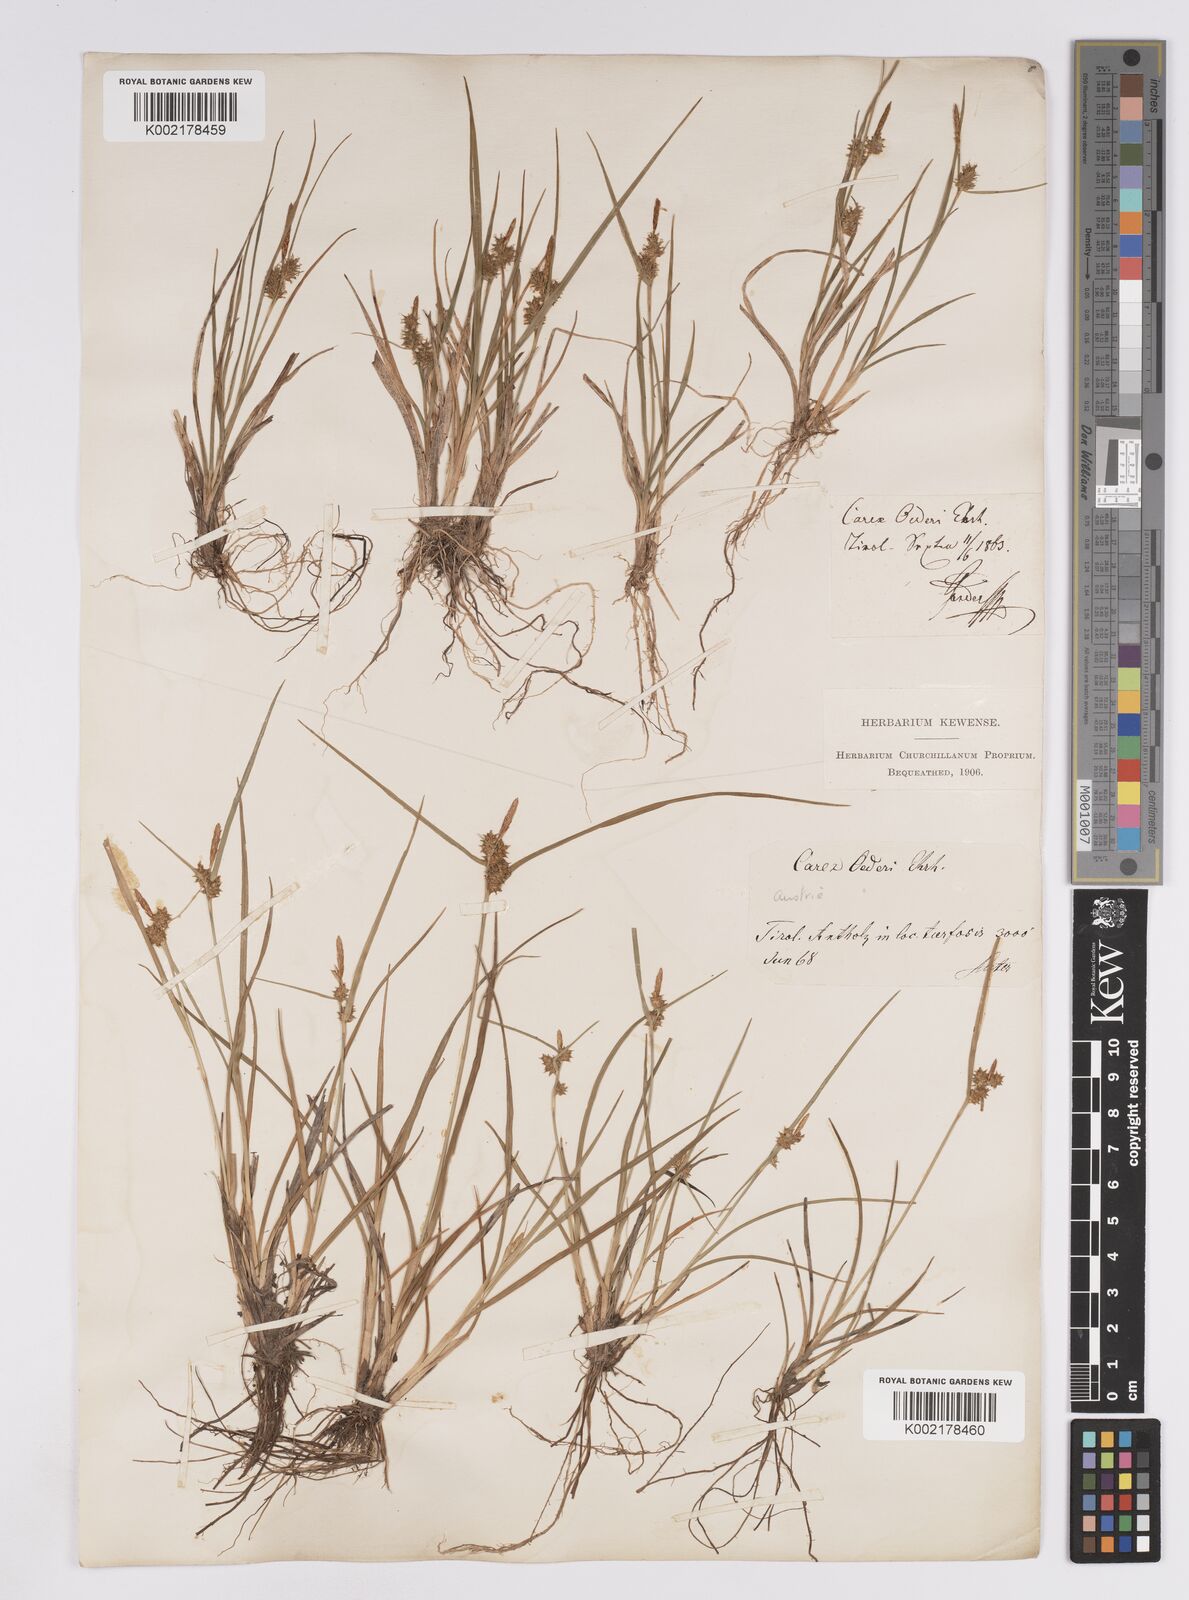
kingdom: Plantae
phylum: Tracheophyta
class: Liliopsida
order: Poales
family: Cyperaceae
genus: Carex
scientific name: Carex demissa
